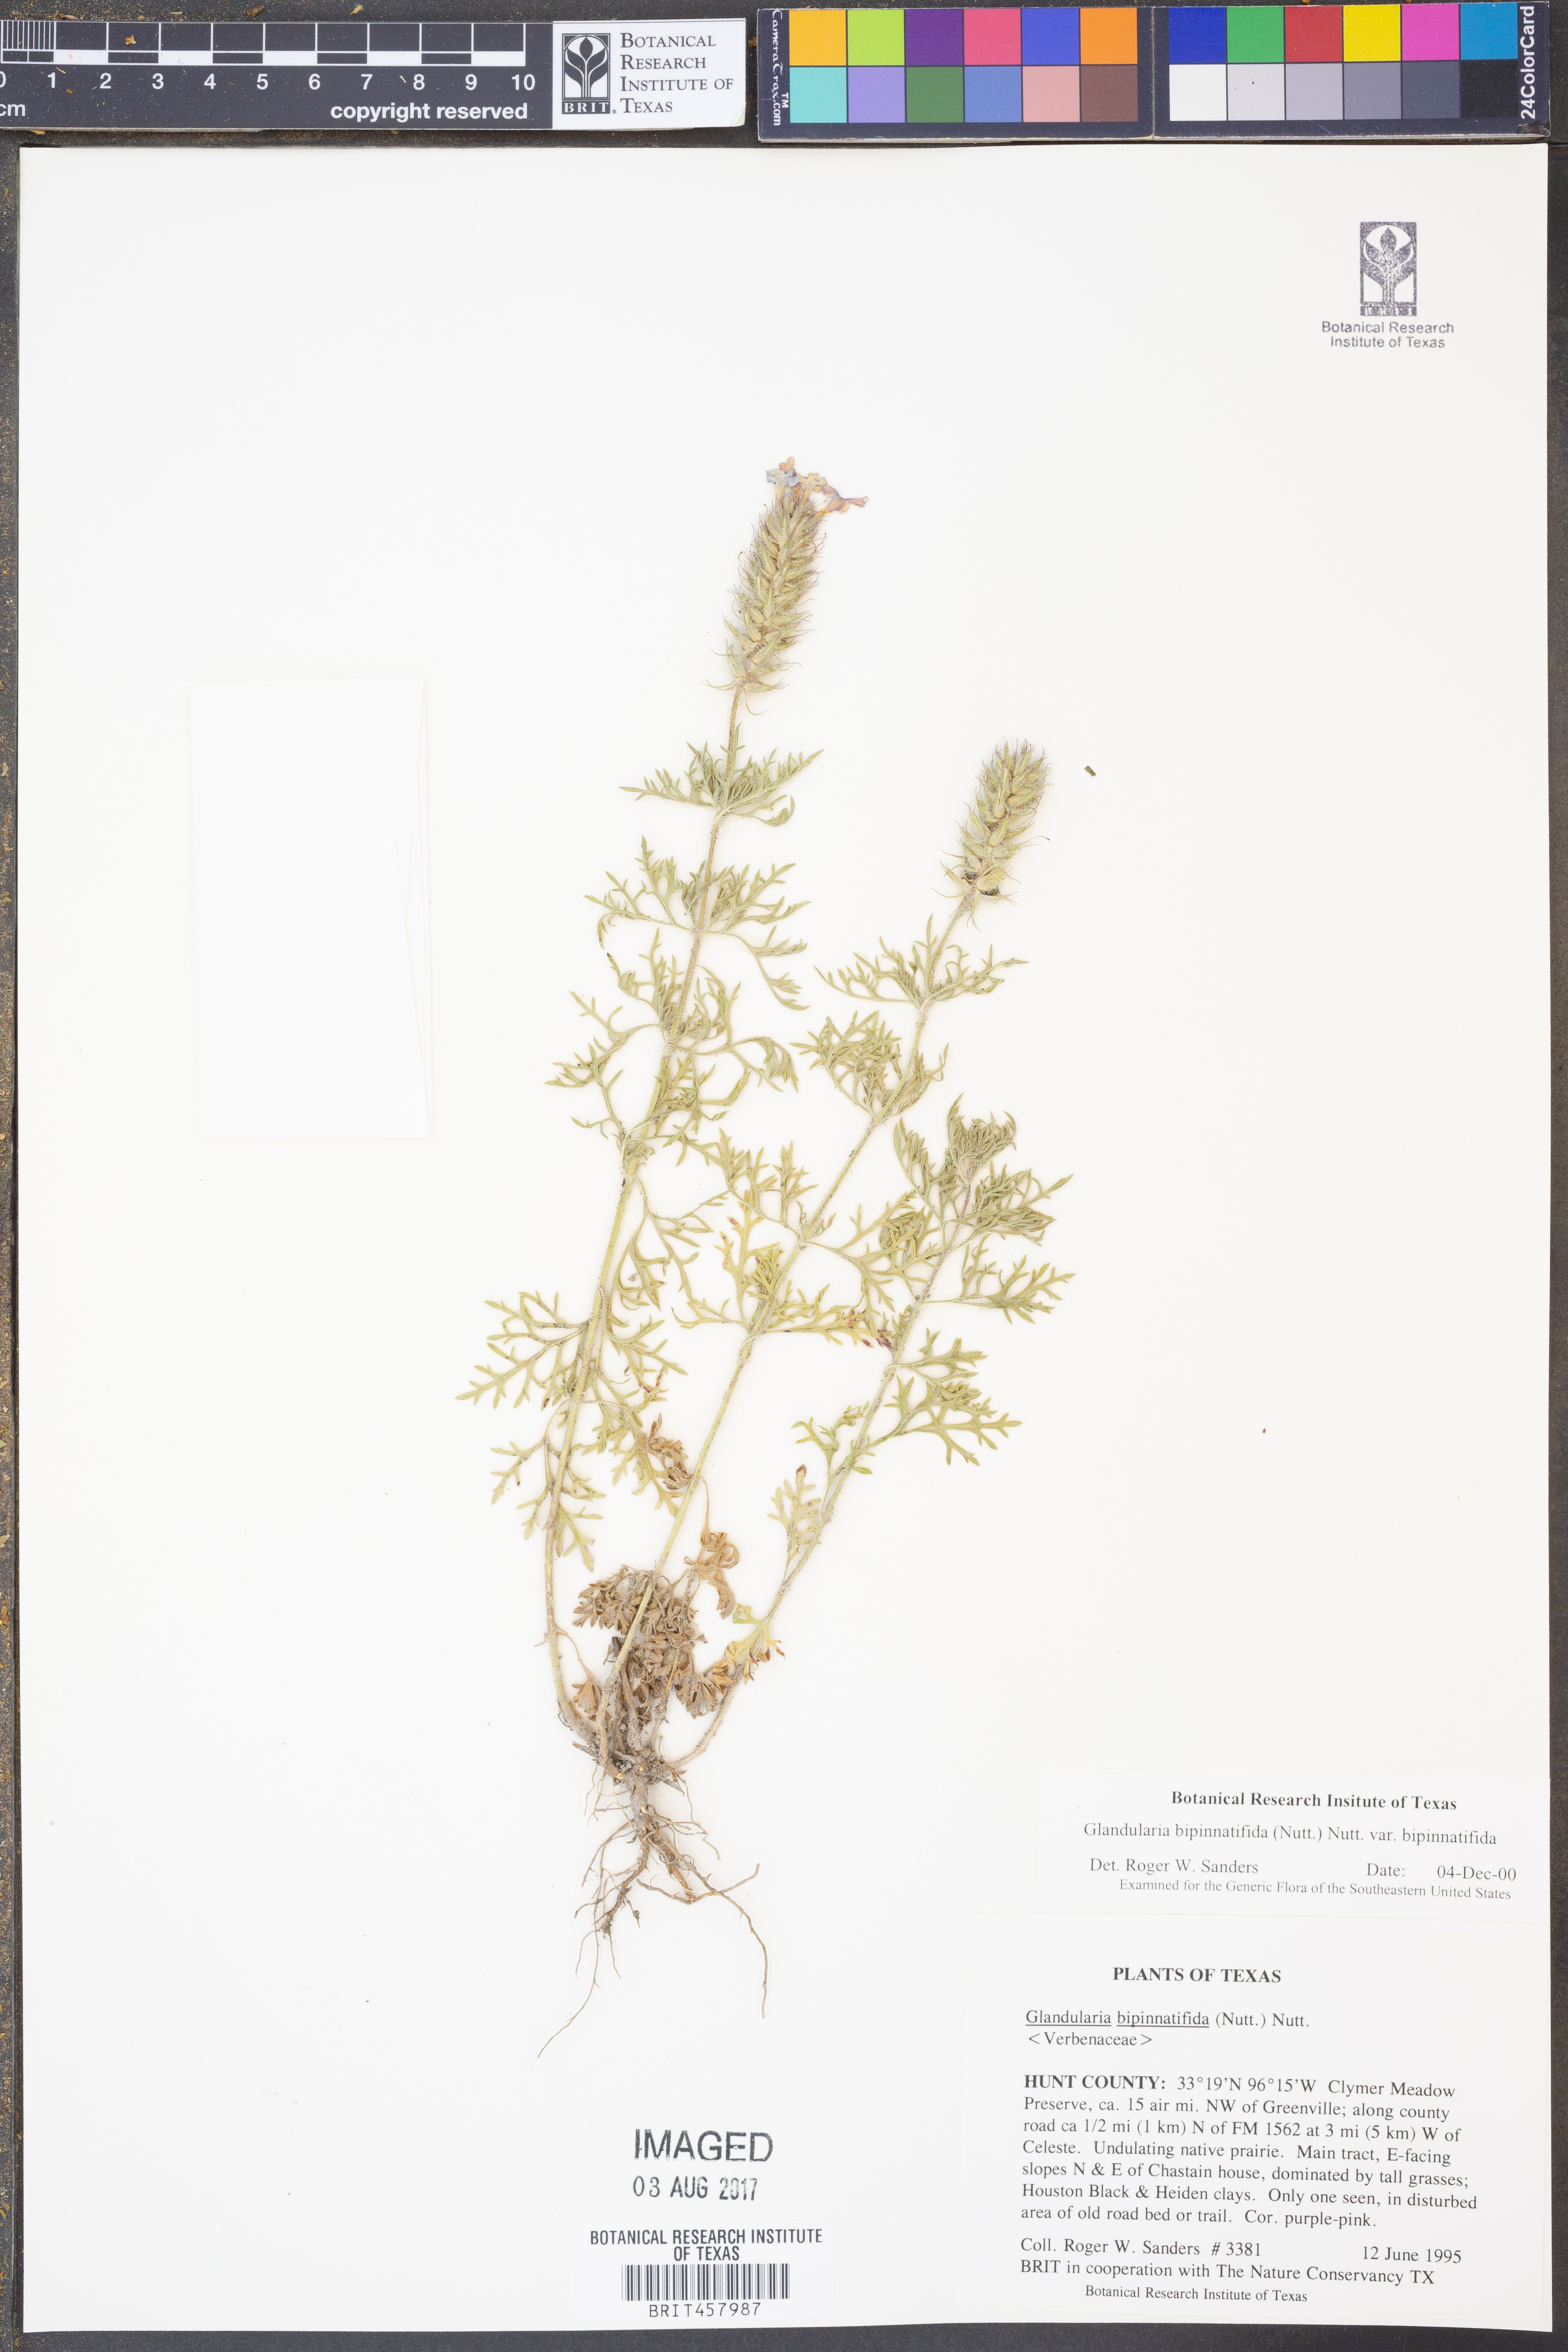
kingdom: Plantae
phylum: Tracheophyta
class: Magnoliopsida
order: Lamiales
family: Verbenaceae
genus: Verbena
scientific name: Verbena bipinnatifida
